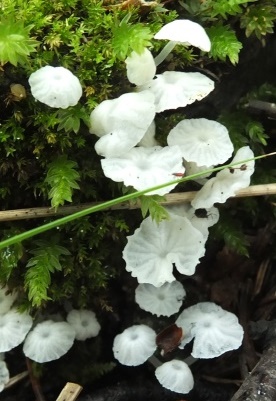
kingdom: Fungi
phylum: Basidiomycota
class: Agaricomycetes
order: Agaricales
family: Tricholomataceae
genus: Delicatula
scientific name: Delicatula integrella
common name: slørhuesvamp
